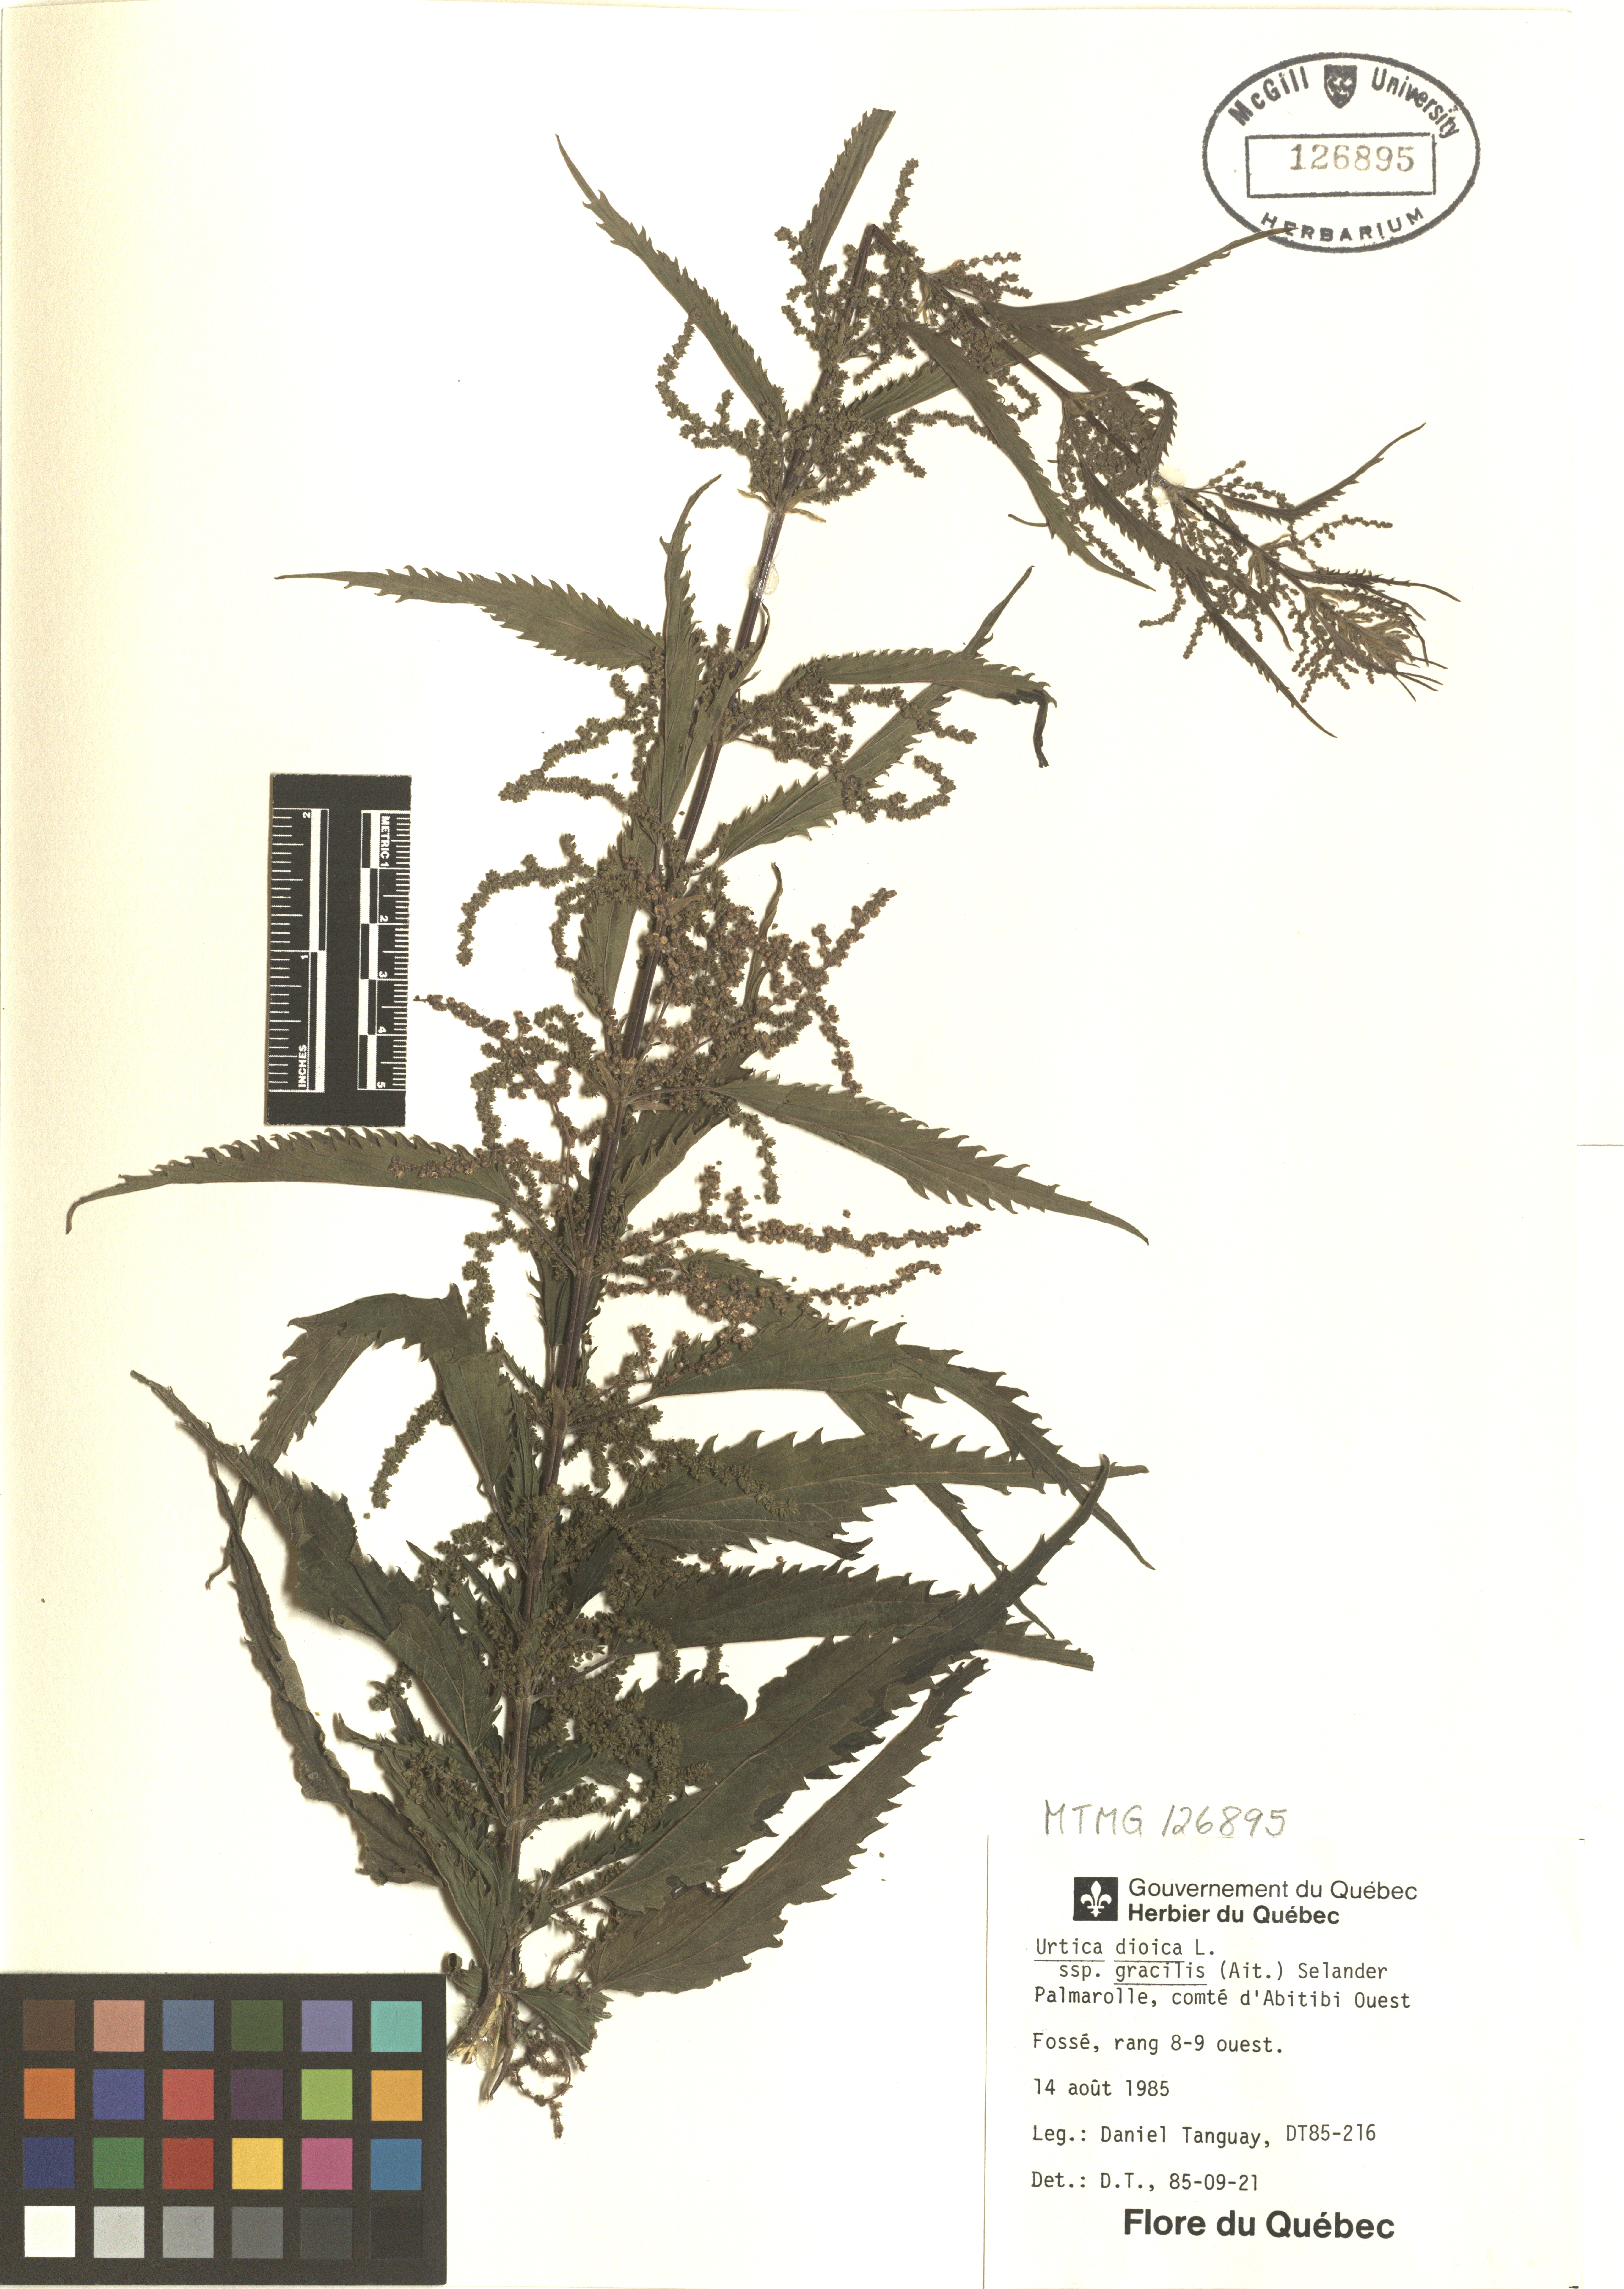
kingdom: Plantae
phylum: Tracheophyta
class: Magnoliopsida
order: Rosales
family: Urticaceae
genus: Urtica
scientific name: Urtica gracilis
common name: Slender stinging nettle
